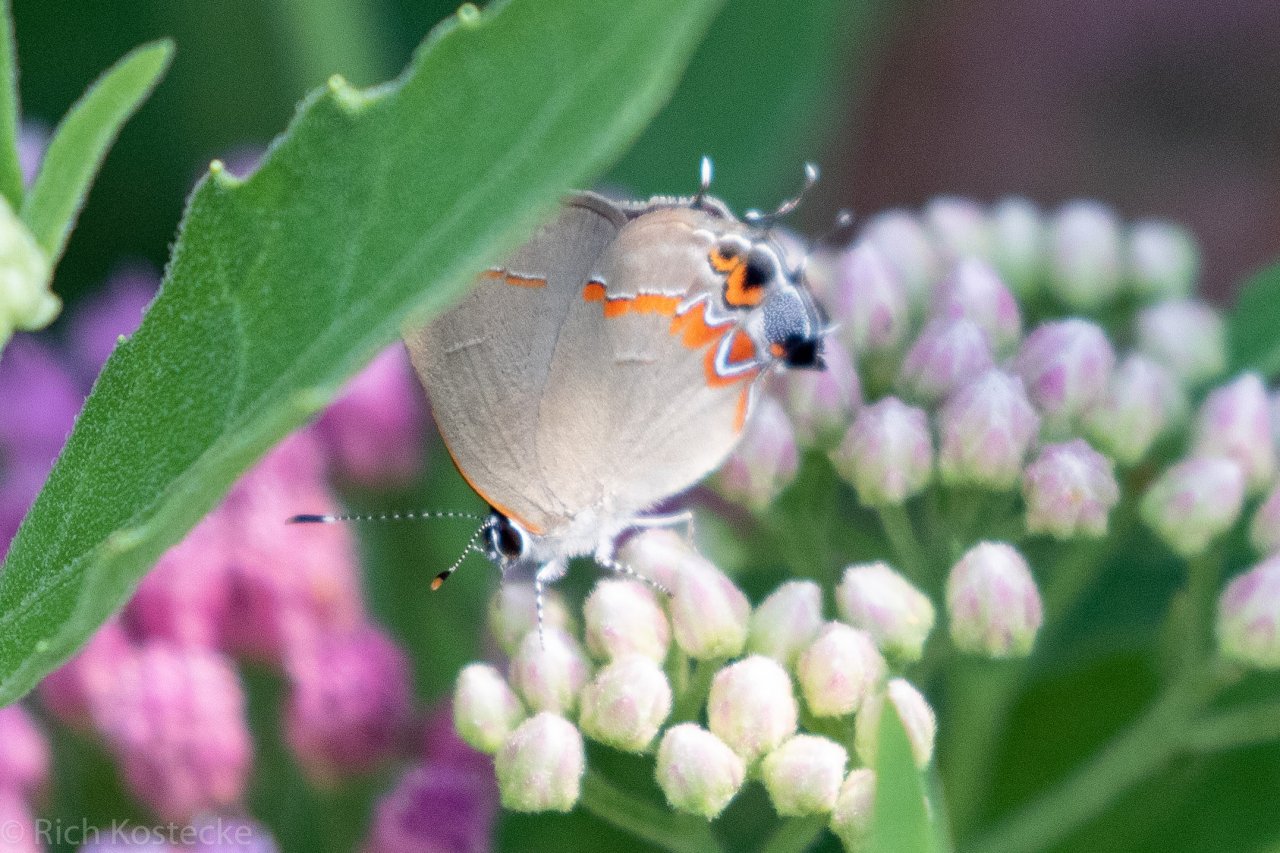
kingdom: Animalia
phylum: Arthropoda
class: Insecta
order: Lepidoptera
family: Lycaenidae
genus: Calycopis
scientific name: Calycopis isobeon
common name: Dusky-blue Groundstreak
